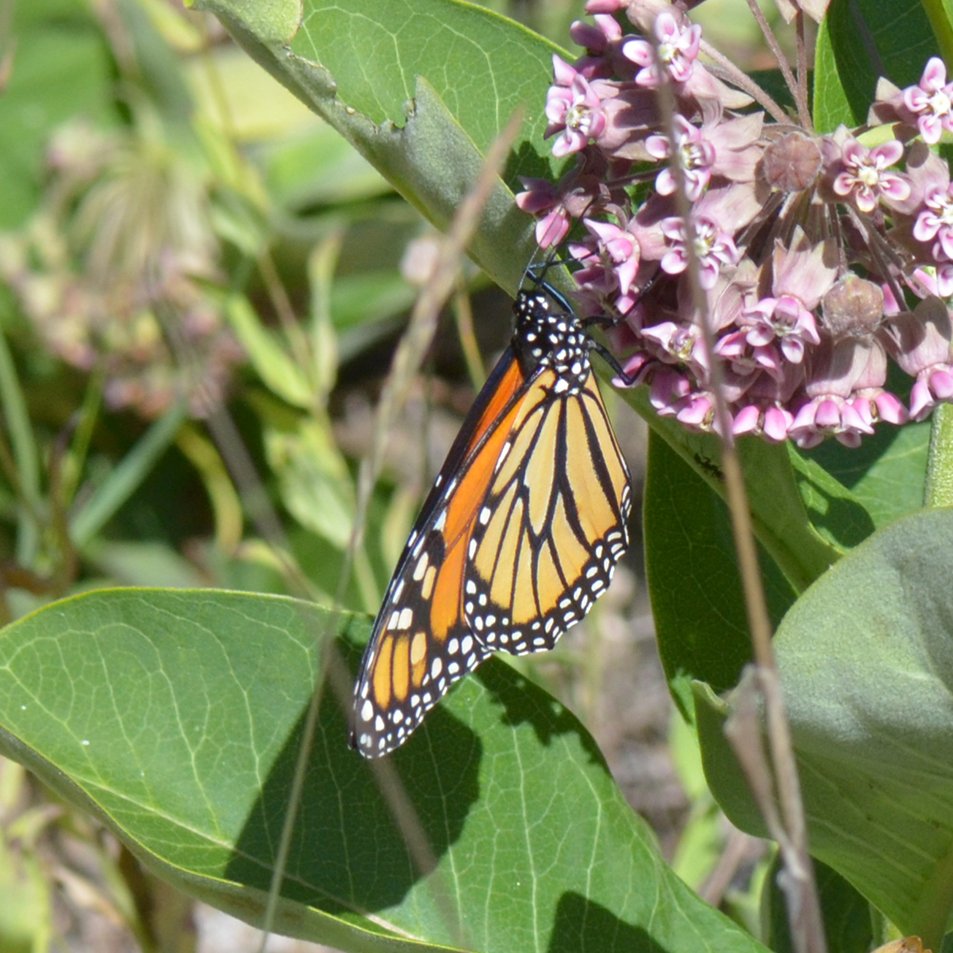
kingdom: Animalia
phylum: Arthropoda
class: Insecta
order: Lepidoptera
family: Nymphalidae
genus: Danaus
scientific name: Danaus plexippus
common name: Monarch
